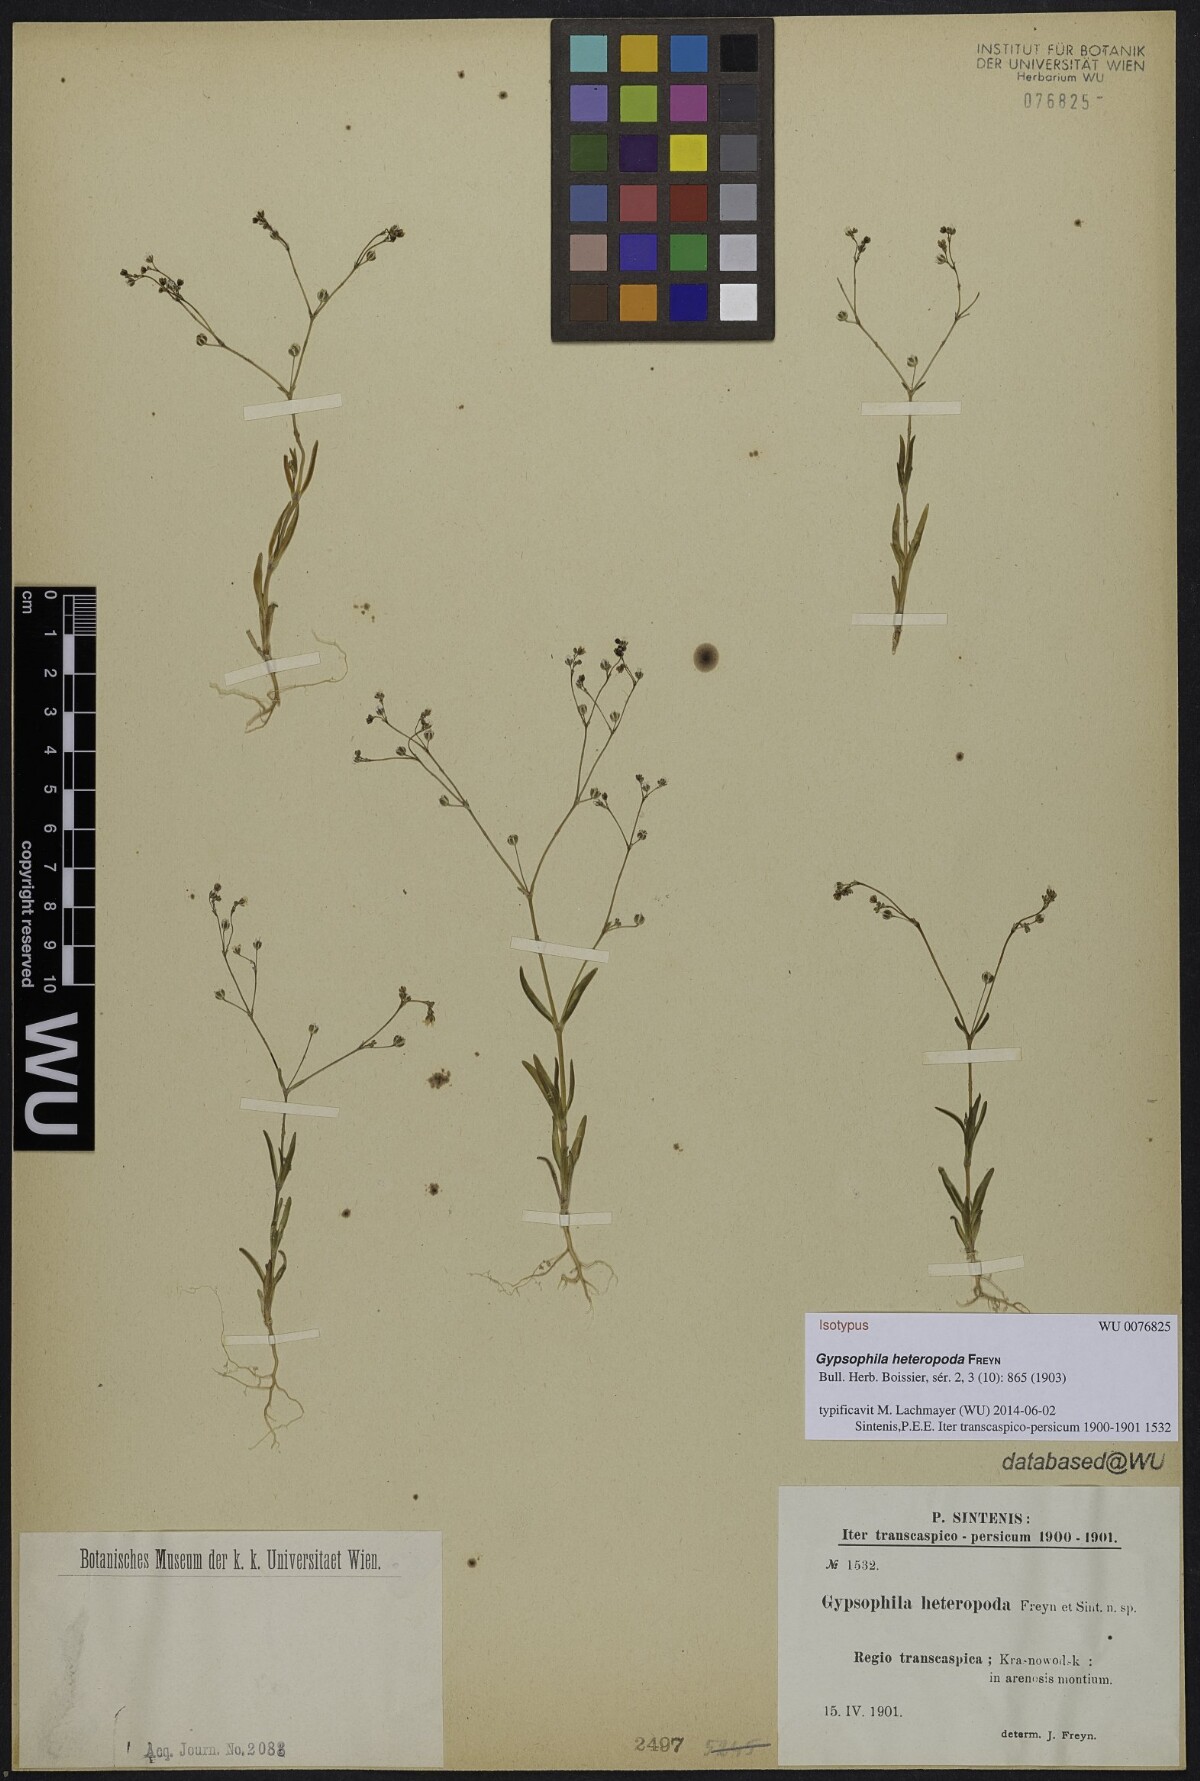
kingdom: Plantae
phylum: Tracheophyta
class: Magnoliopsida
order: Caryophyllales
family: Caryophyllaceae
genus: Gypsophila
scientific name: Gypsophila heteropoda
